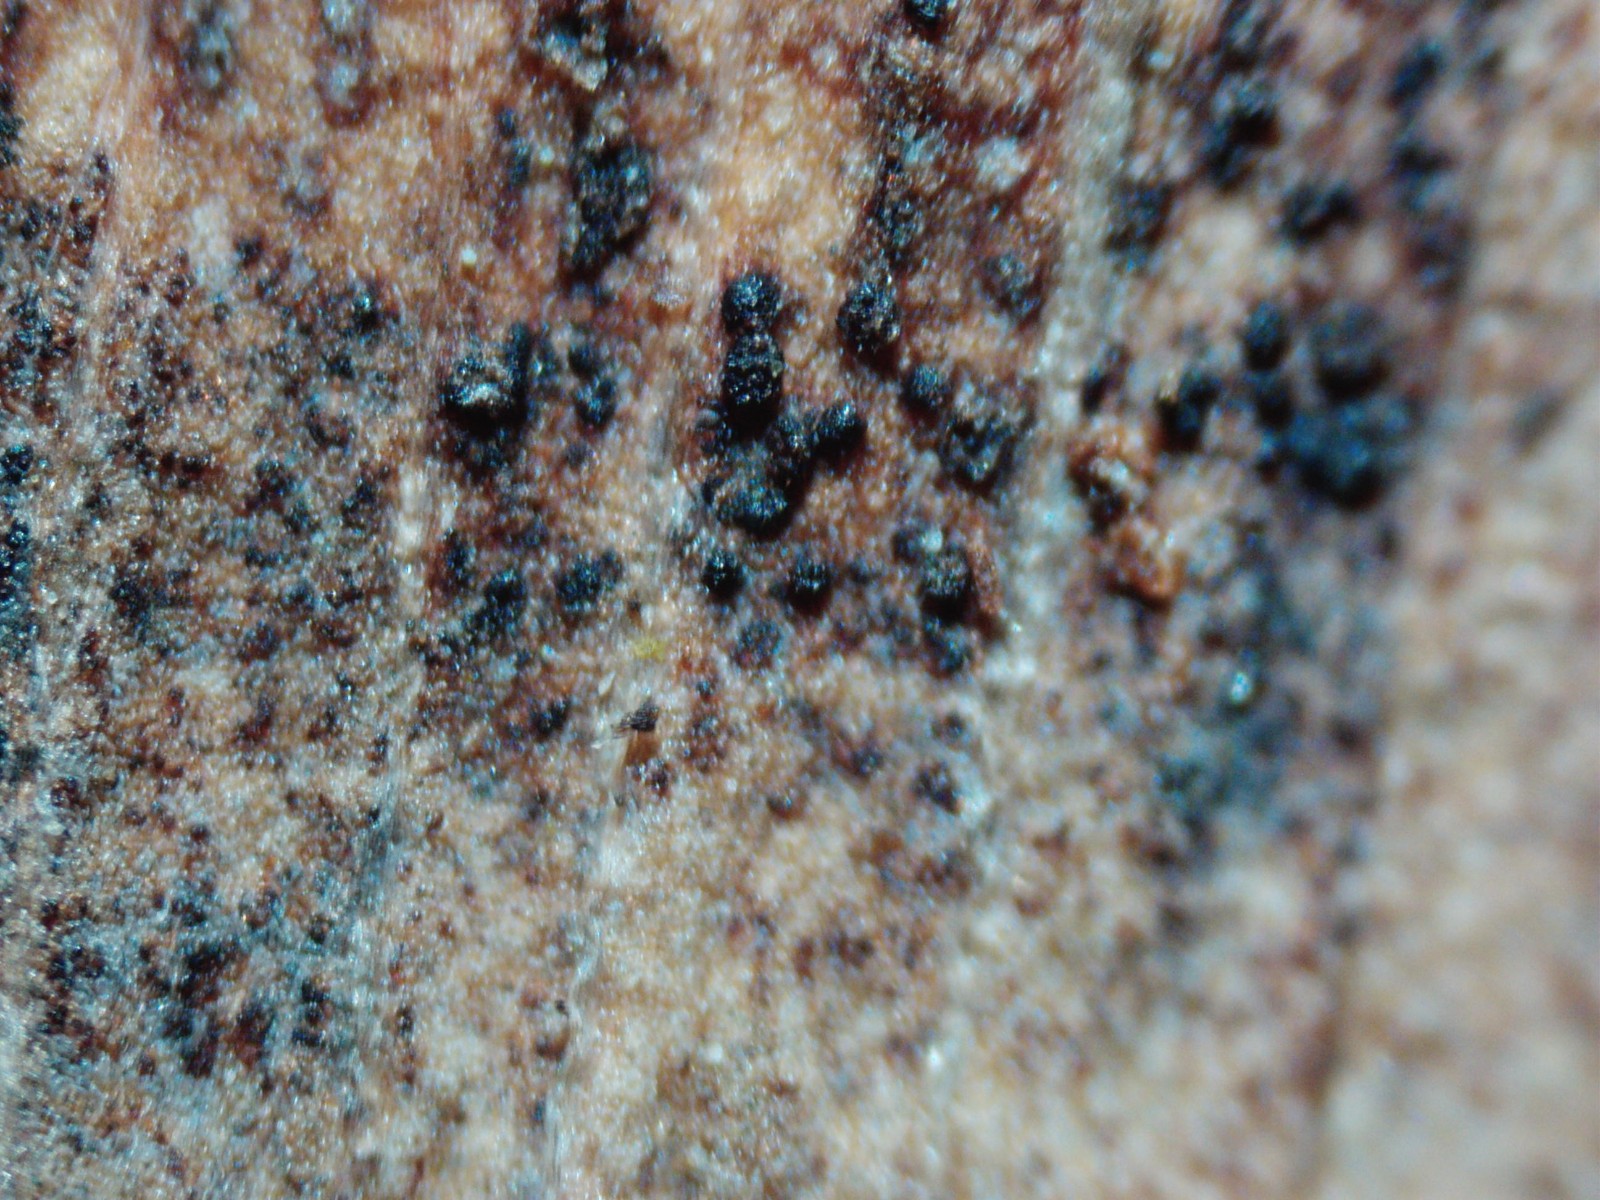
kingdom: Fungi
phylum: Basidiomycota
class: Wallemiomycetes
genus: Bartheletia
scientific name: Bartheletia paradoxa
